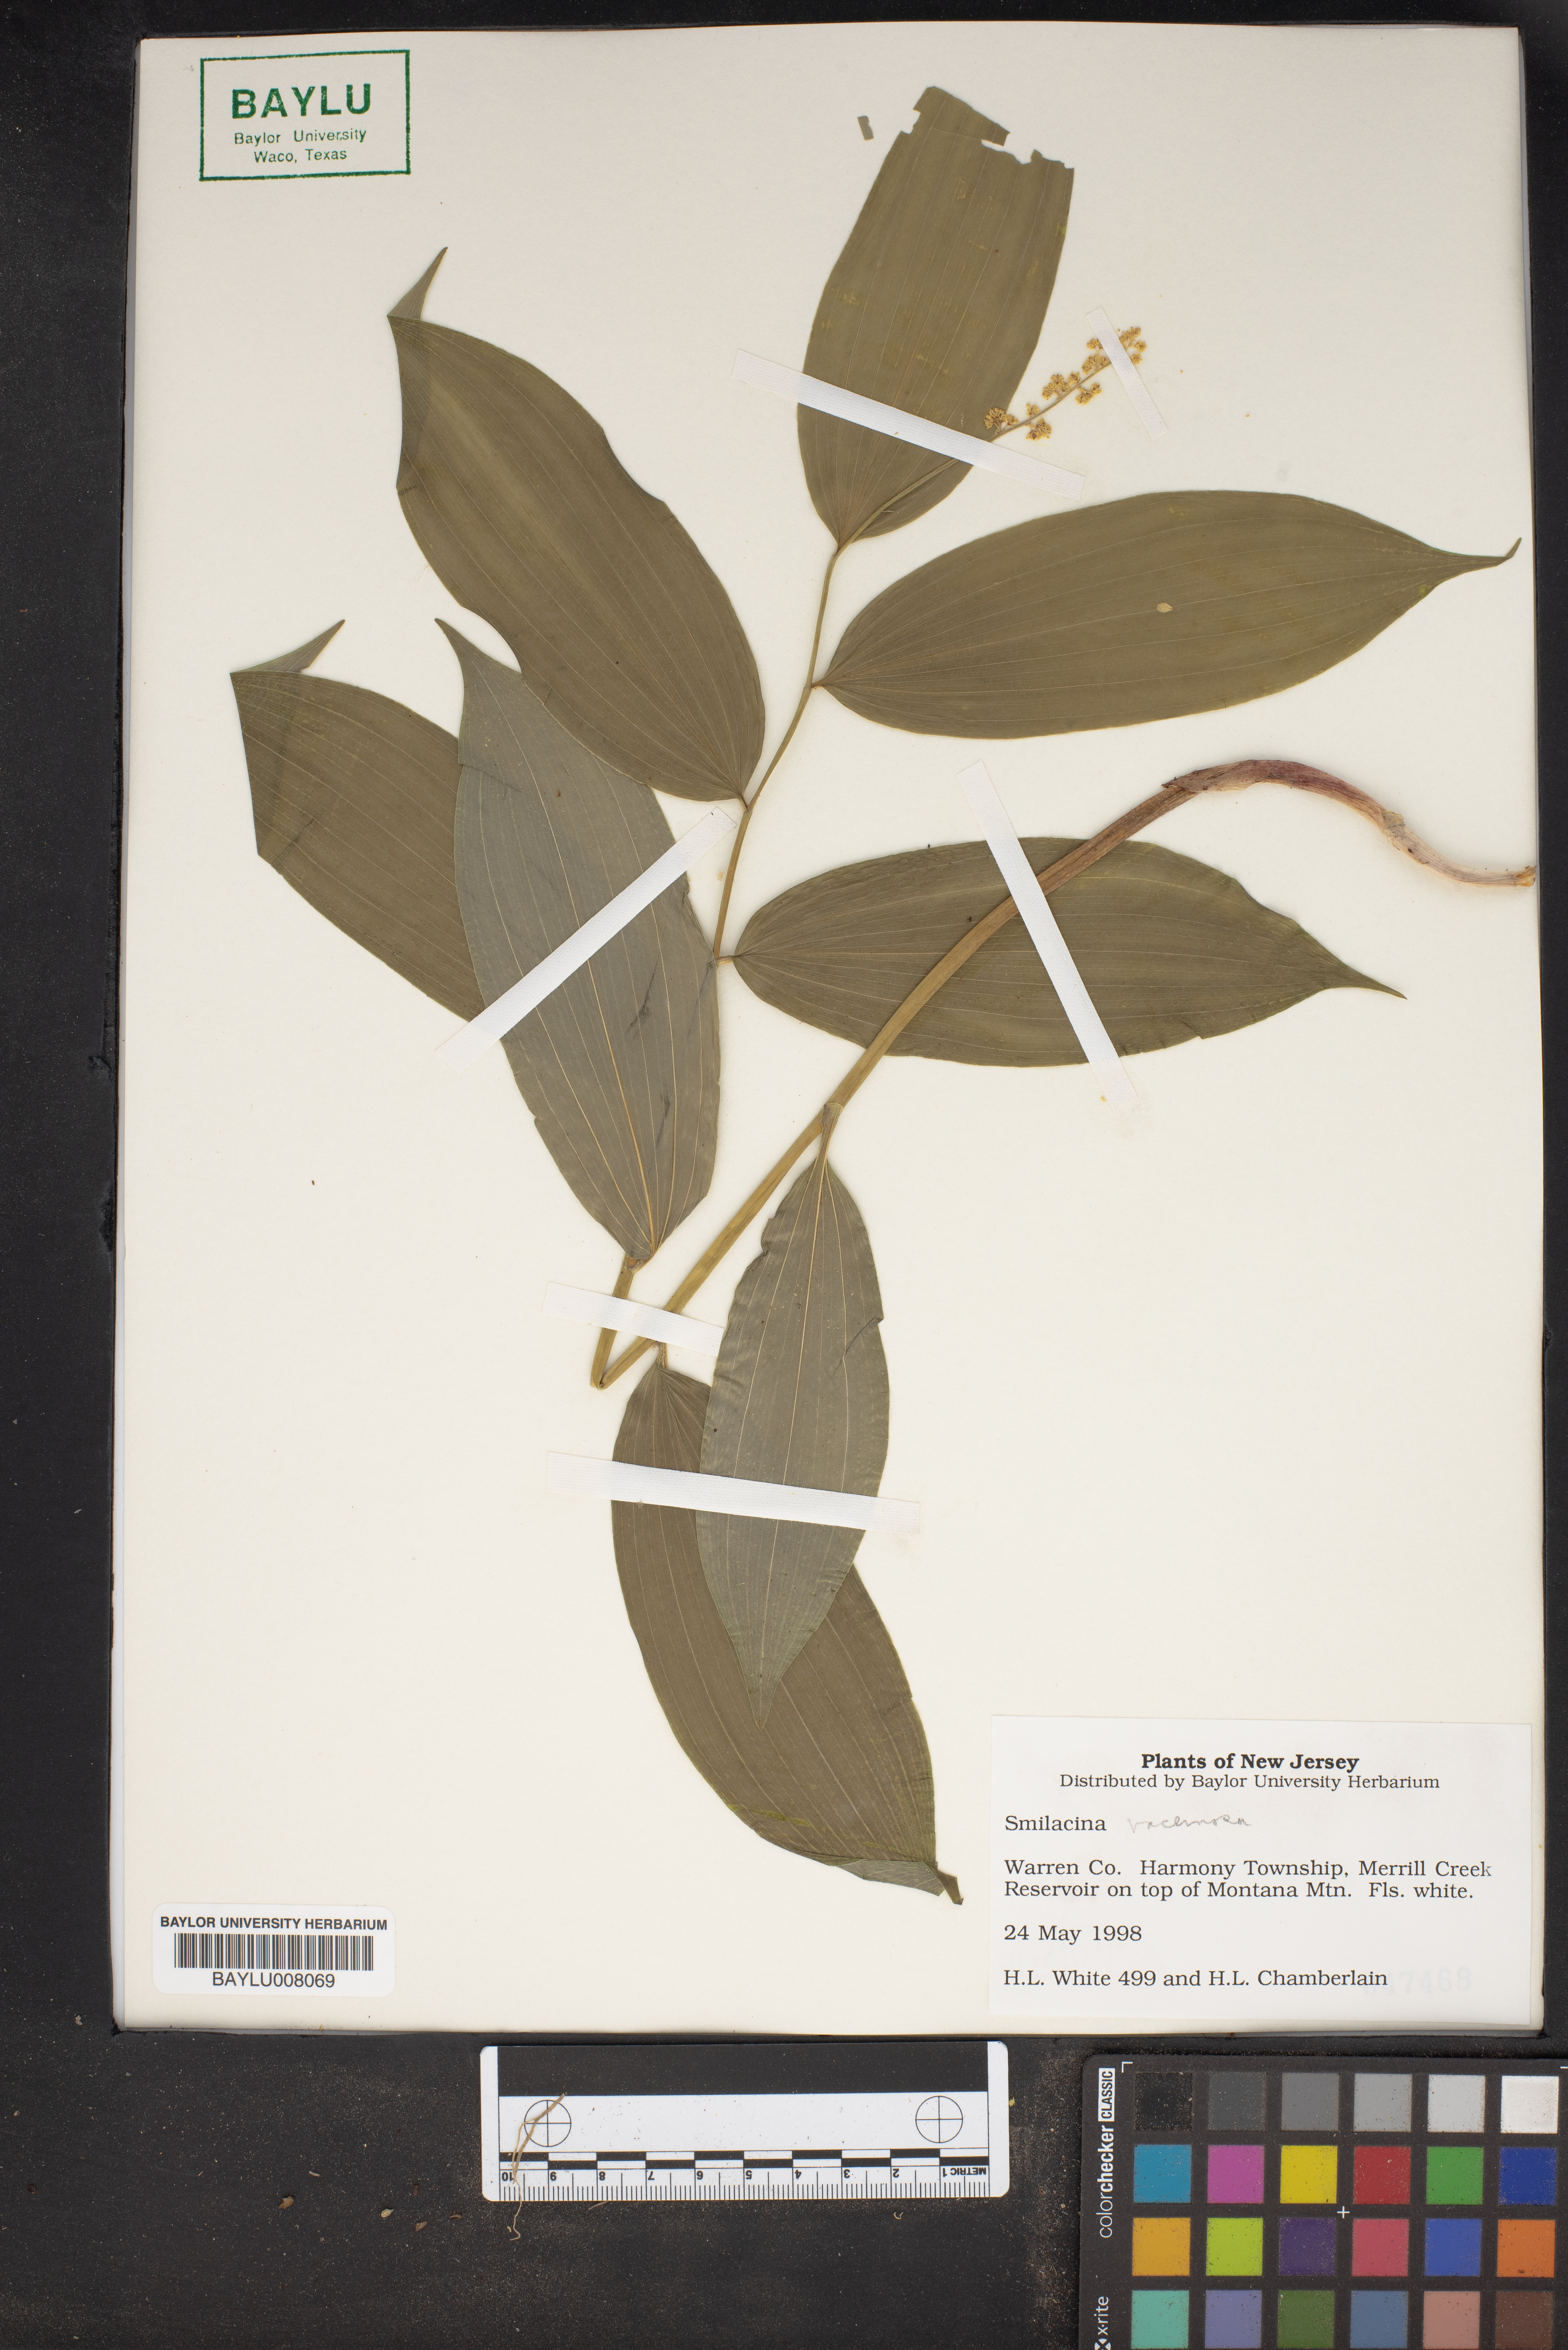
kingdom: Plantae
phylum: Tracheophyta
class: Liliopsida
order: Liliales
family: Liliaceae
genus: Smilacina
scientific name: Smilacina
